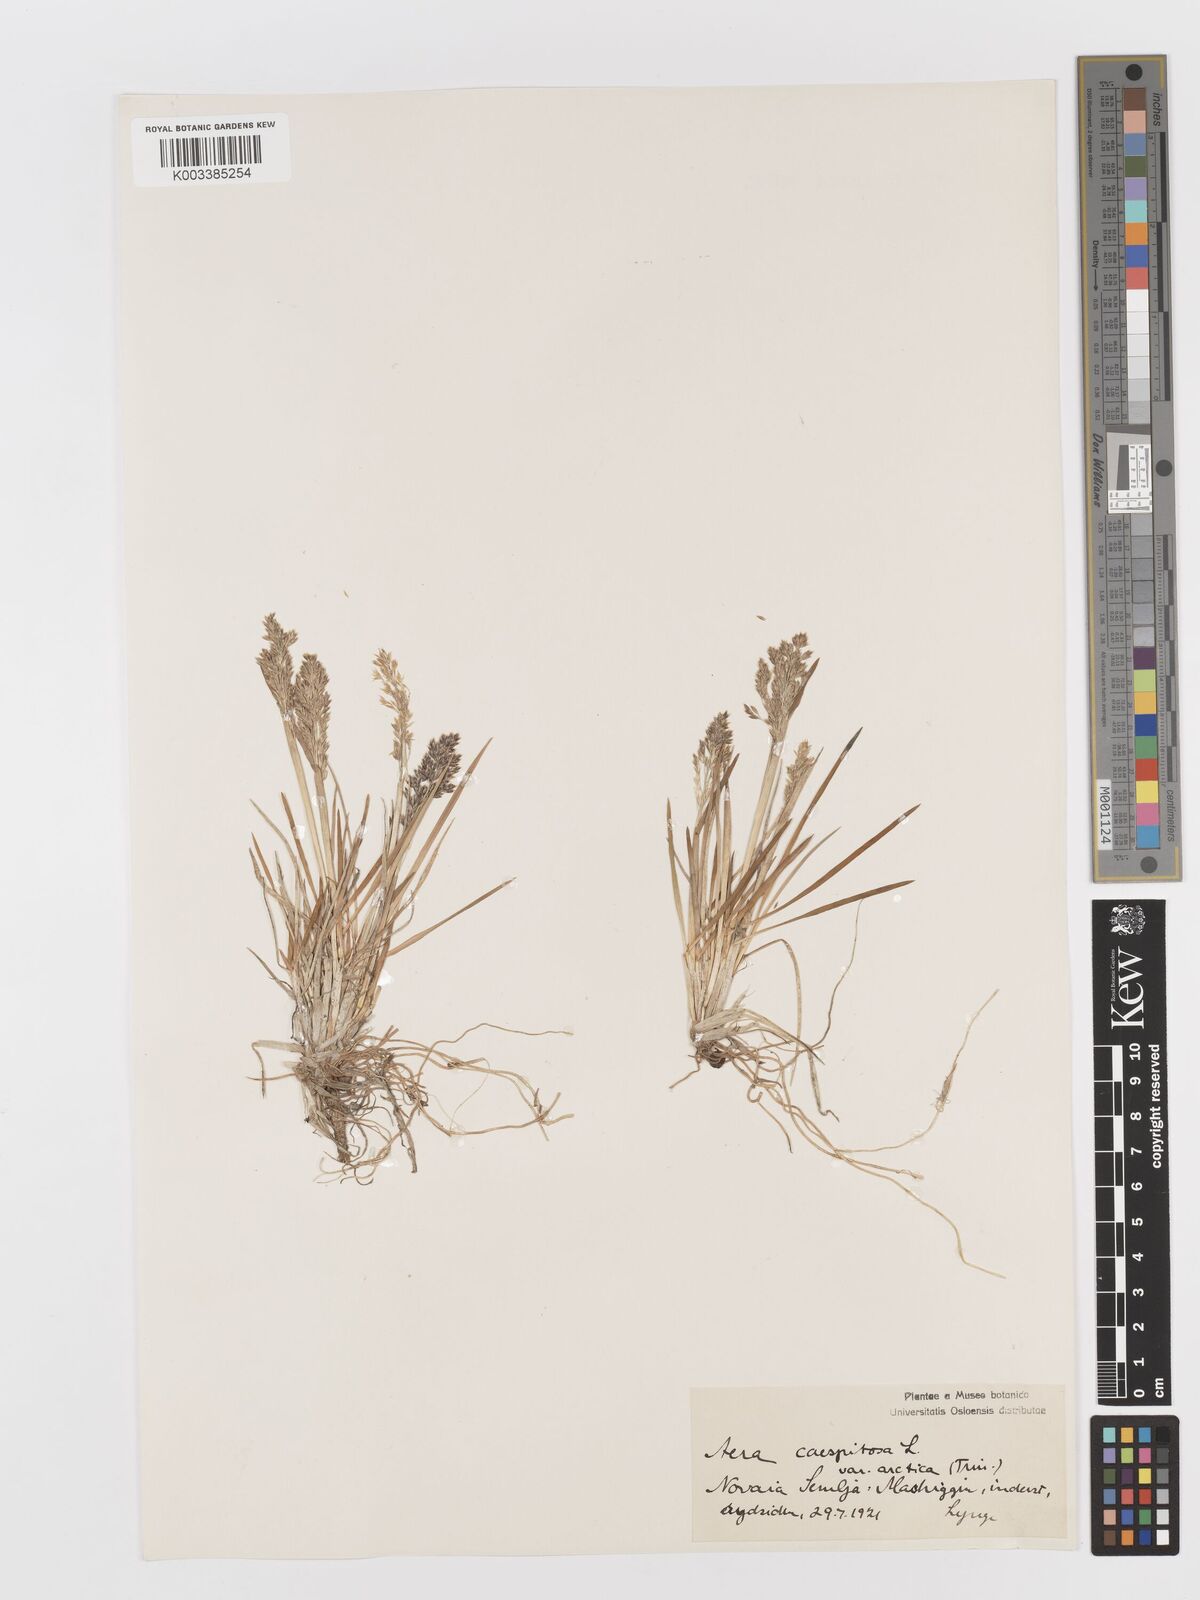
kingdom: Plantae
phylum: Tracheophyta
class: Liliopsida
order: Poales
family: Poaceae
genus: Deschampsia
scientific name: Deschampsia cespitosa
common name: Tufted hair-grass
